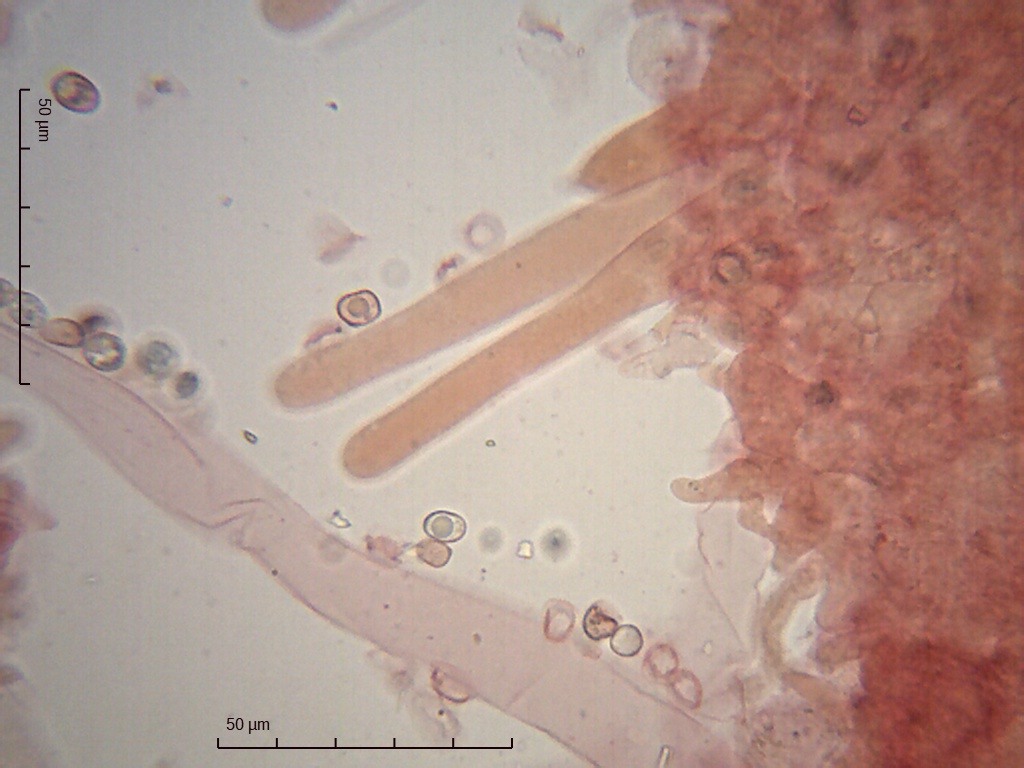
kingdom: Fungi
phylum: Basidiomycota
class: Agaricomycetes
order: Agaricales
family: Pluteaceae
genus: Pluteus
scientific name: Pluteus exiguus
